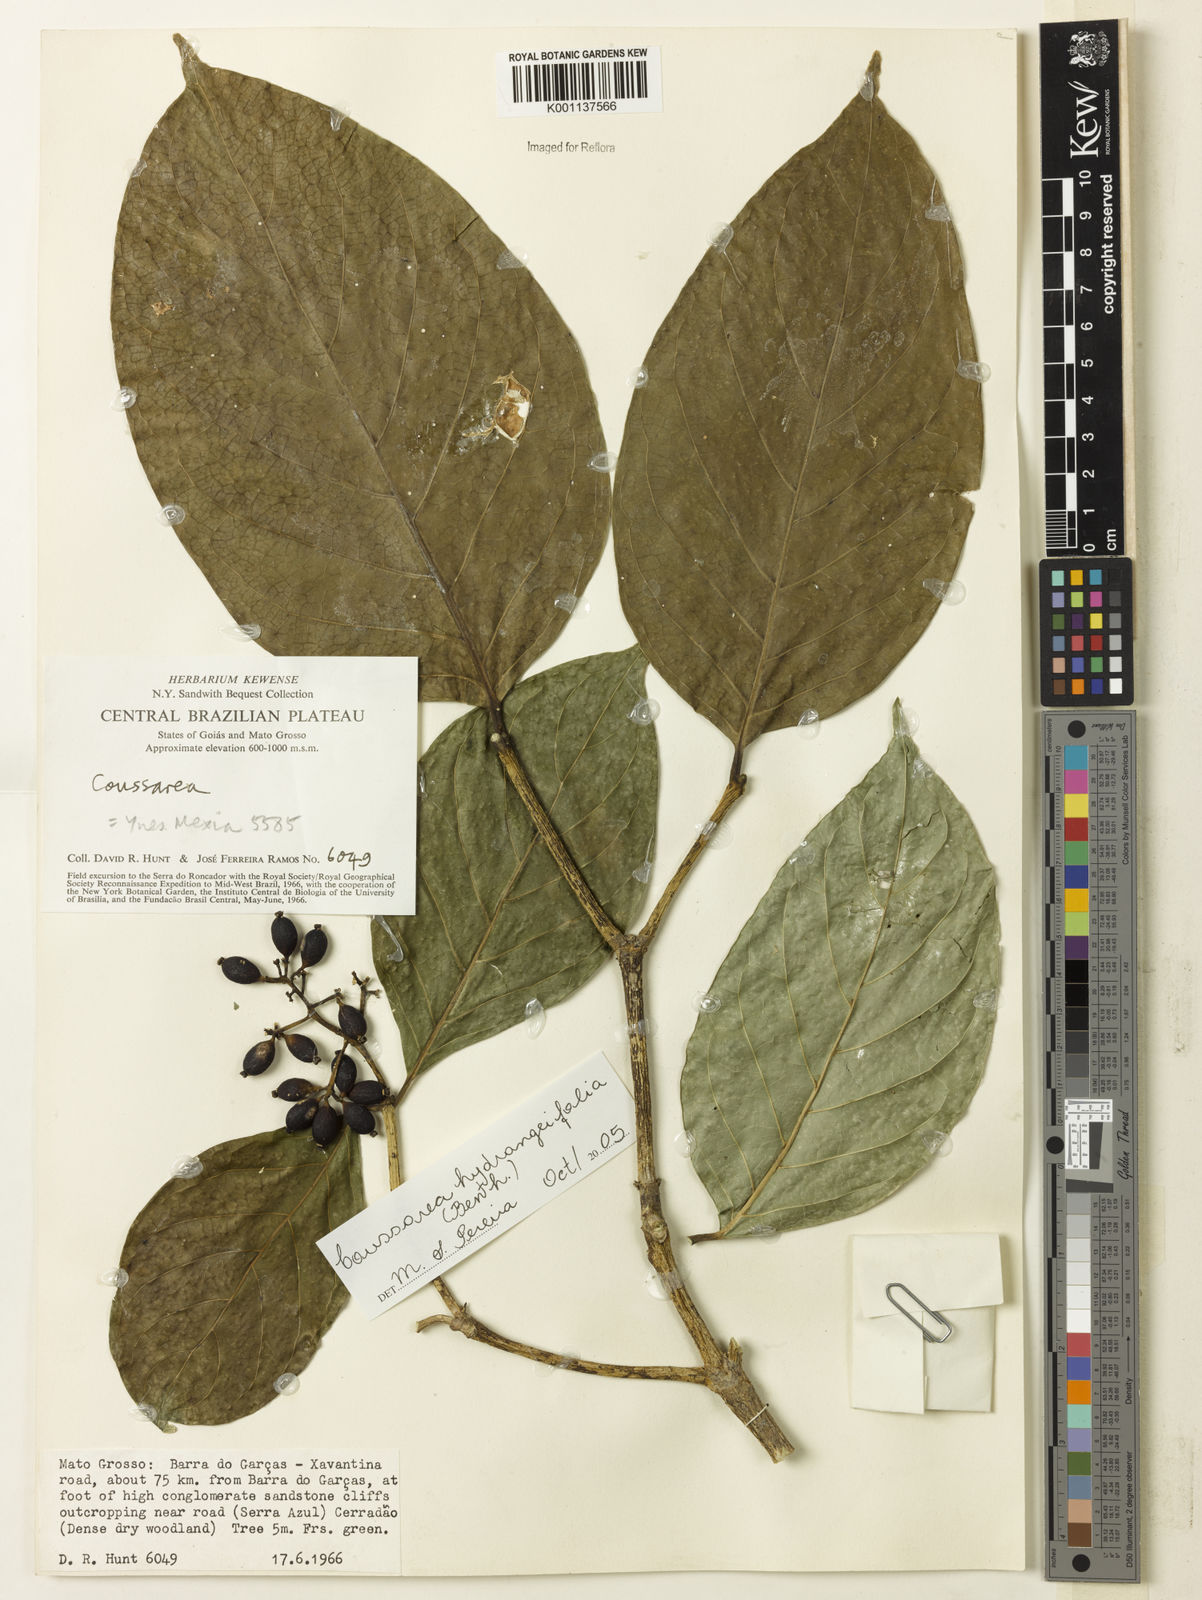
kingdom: Plantae
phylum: Tracheophyta
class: Magnoliopsida
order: Gentianales
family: Rubiaceae
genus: Coussarea
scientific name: Coussarea
